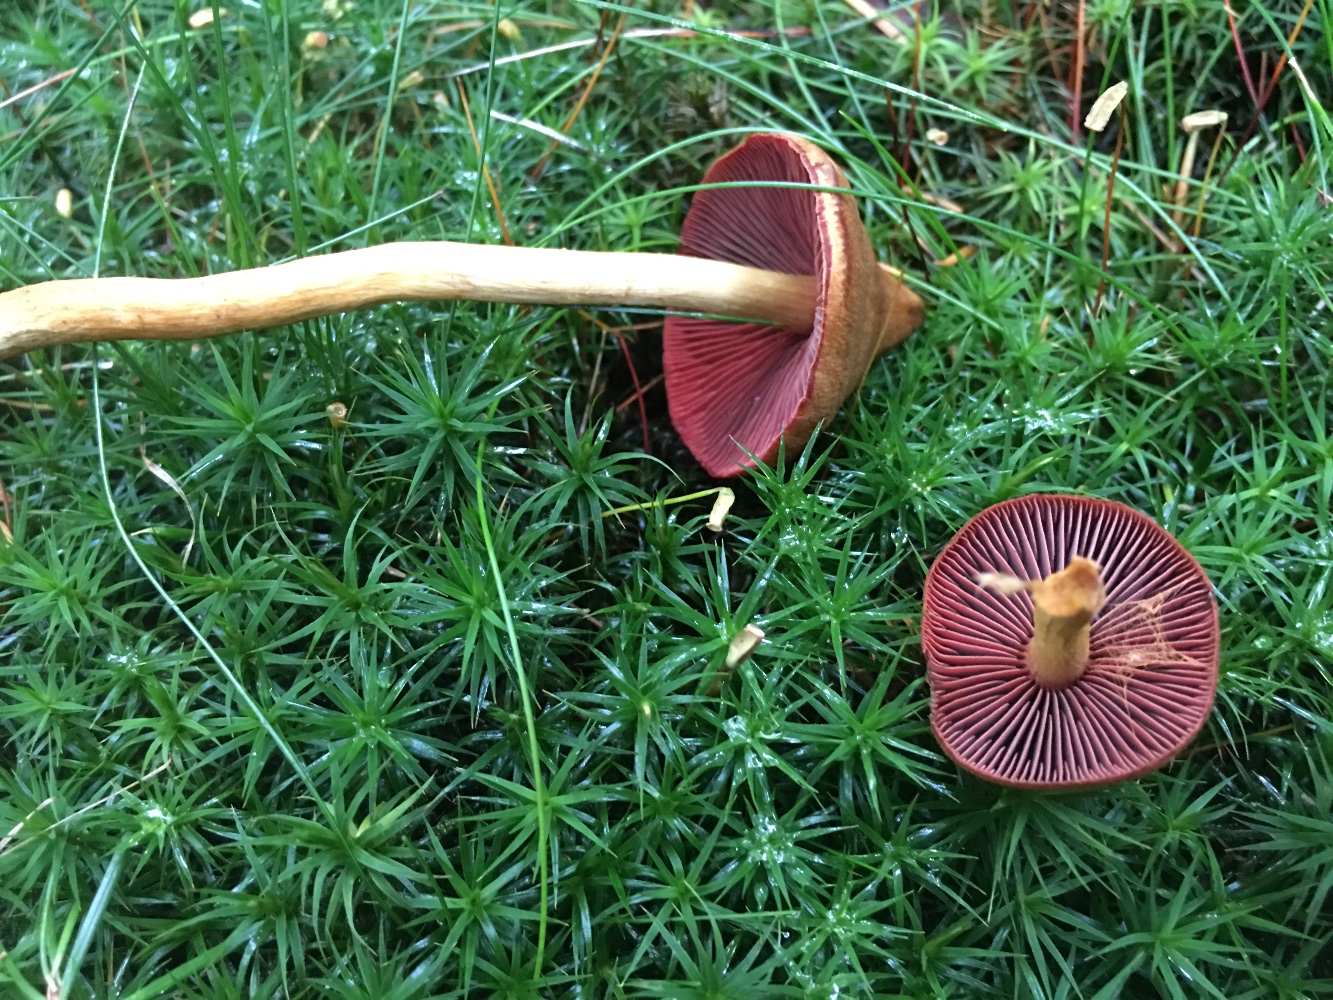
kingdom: Fungi
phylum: Basidiomycota
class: Agaricomycetes
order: Agaricales
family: Cortinariaceae
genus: Cortinarius
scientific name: Cortinarius
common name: cinnoberbladet slørhat
